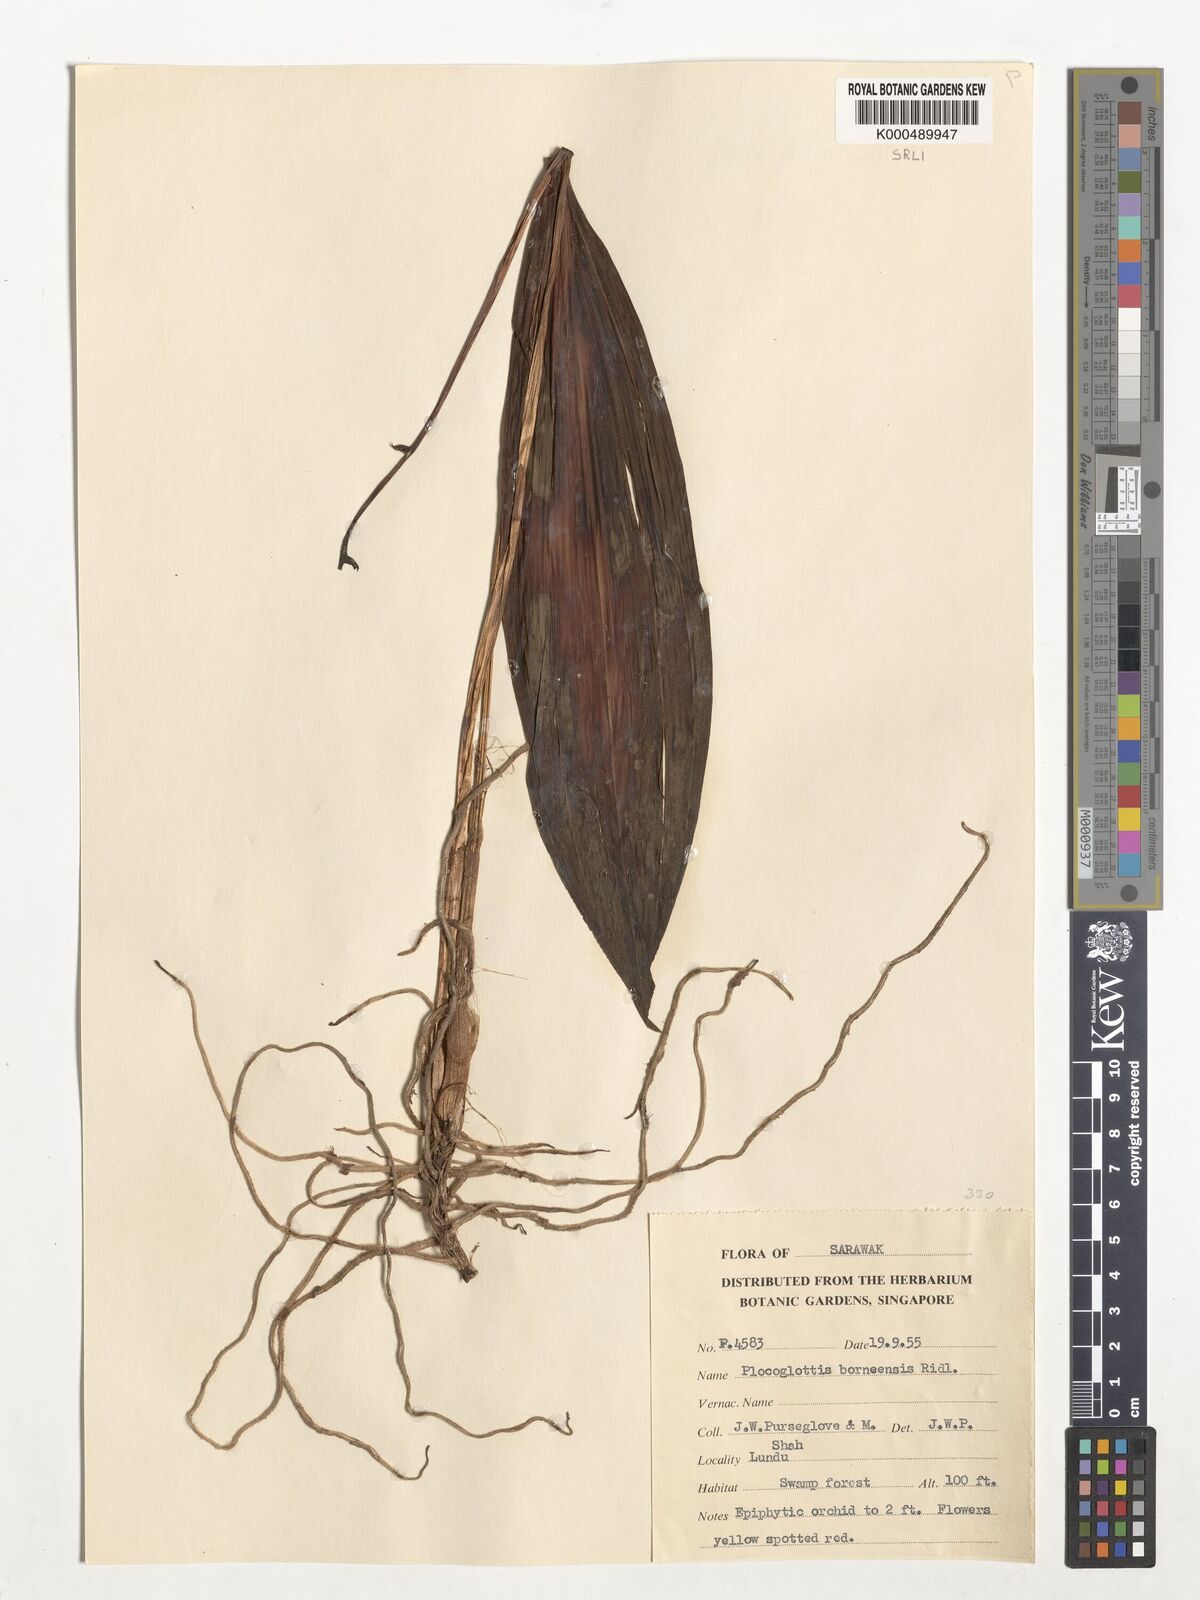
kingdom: Plantae
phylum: Tracheophyta
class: Liliopsida
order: Asparagales
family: Orchidaceae
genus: Plocoglottis
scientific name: Plocoglottis borneensis
